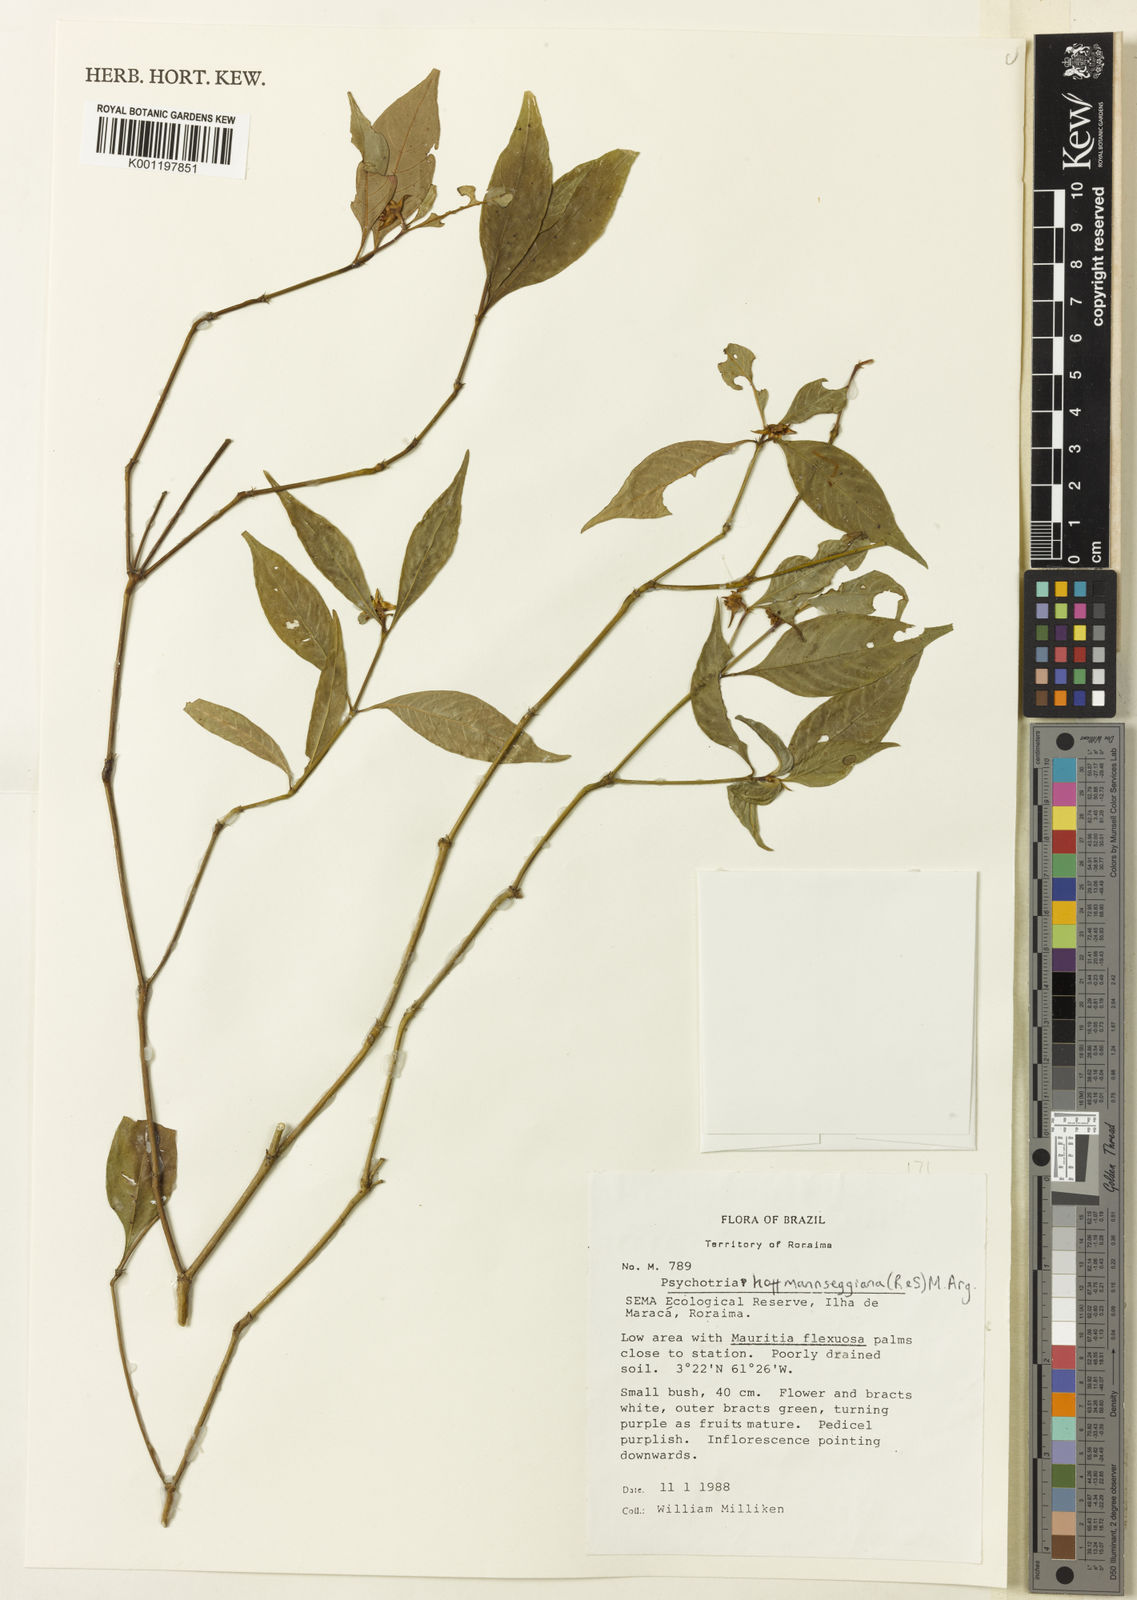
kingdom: Plantae
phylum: Tracheophyta
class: Magnoliopsida
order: Gentianales
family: Rubiaceae
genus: Psychotria
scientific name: Psychotria
